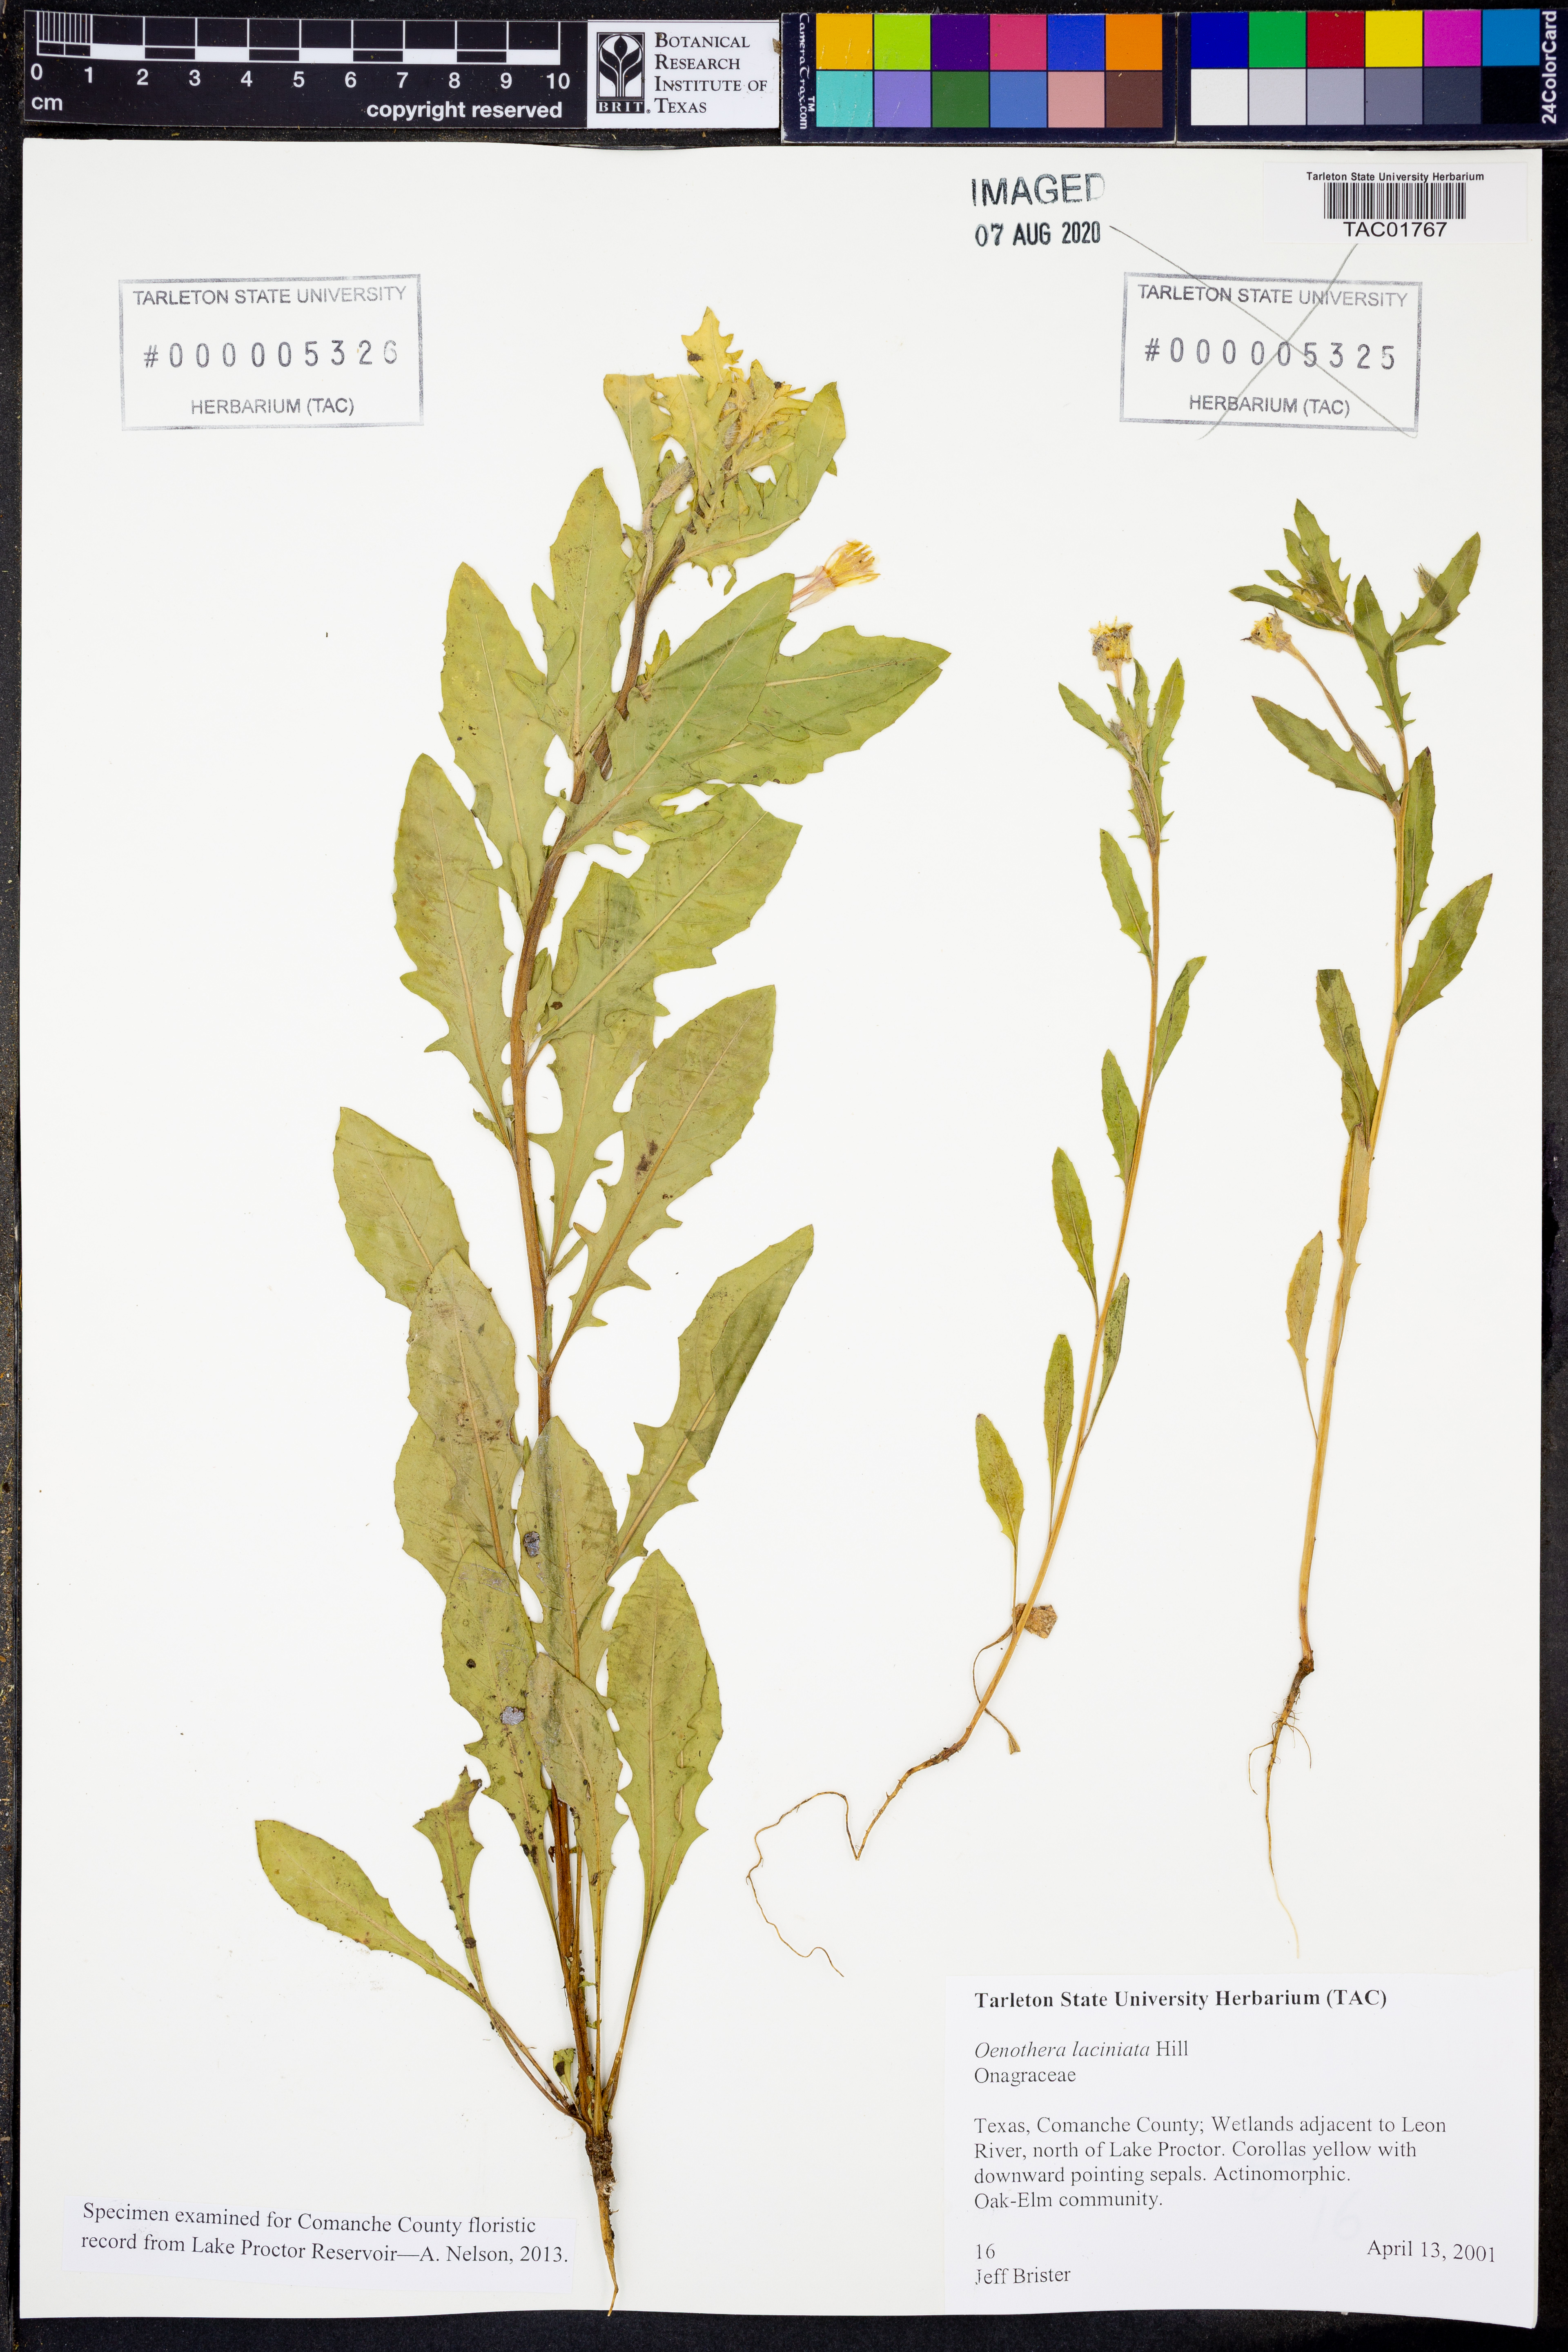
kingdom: Plantae
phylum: Tracheophyta
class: Magnoliopsida
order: Myrtales
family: Onagraceae
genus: Oenothera
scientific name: Oenothera laciniata
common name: Cut-leaved evening-primrose
